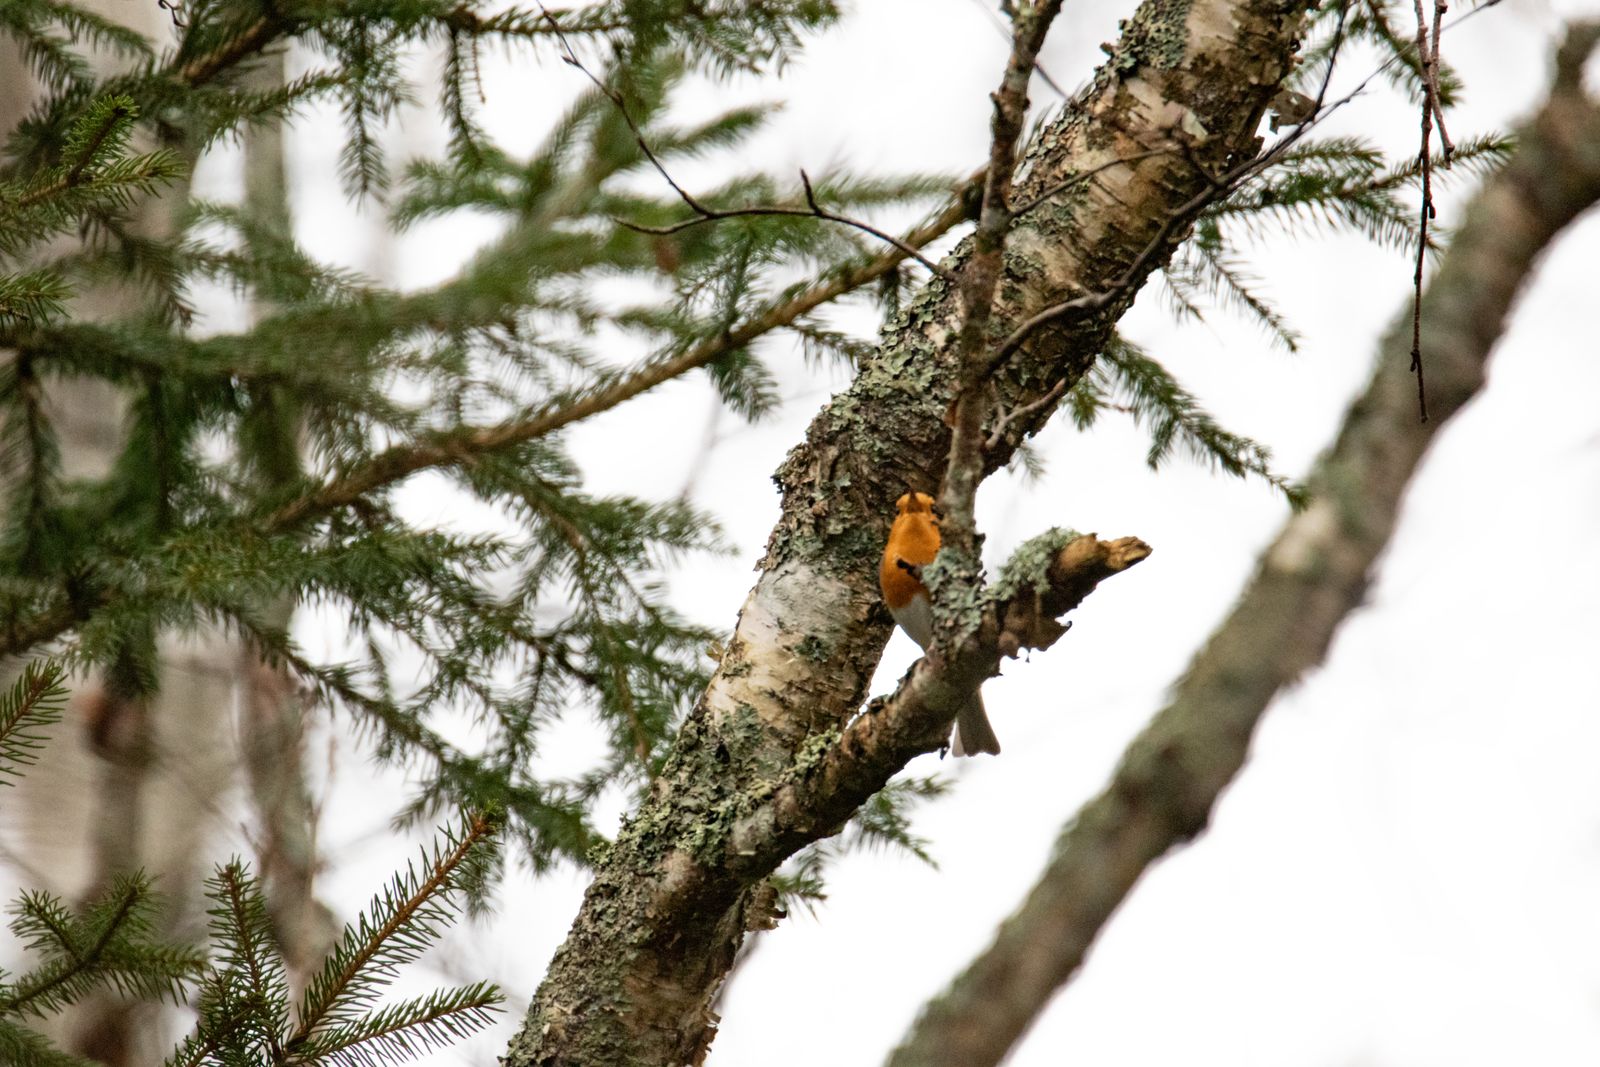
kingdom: Animalia
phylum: Chordata
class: Aves
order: Passeriformes
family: Muscicapidae
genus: Erithacus
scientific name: Erithacus rubecula
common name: European robin
